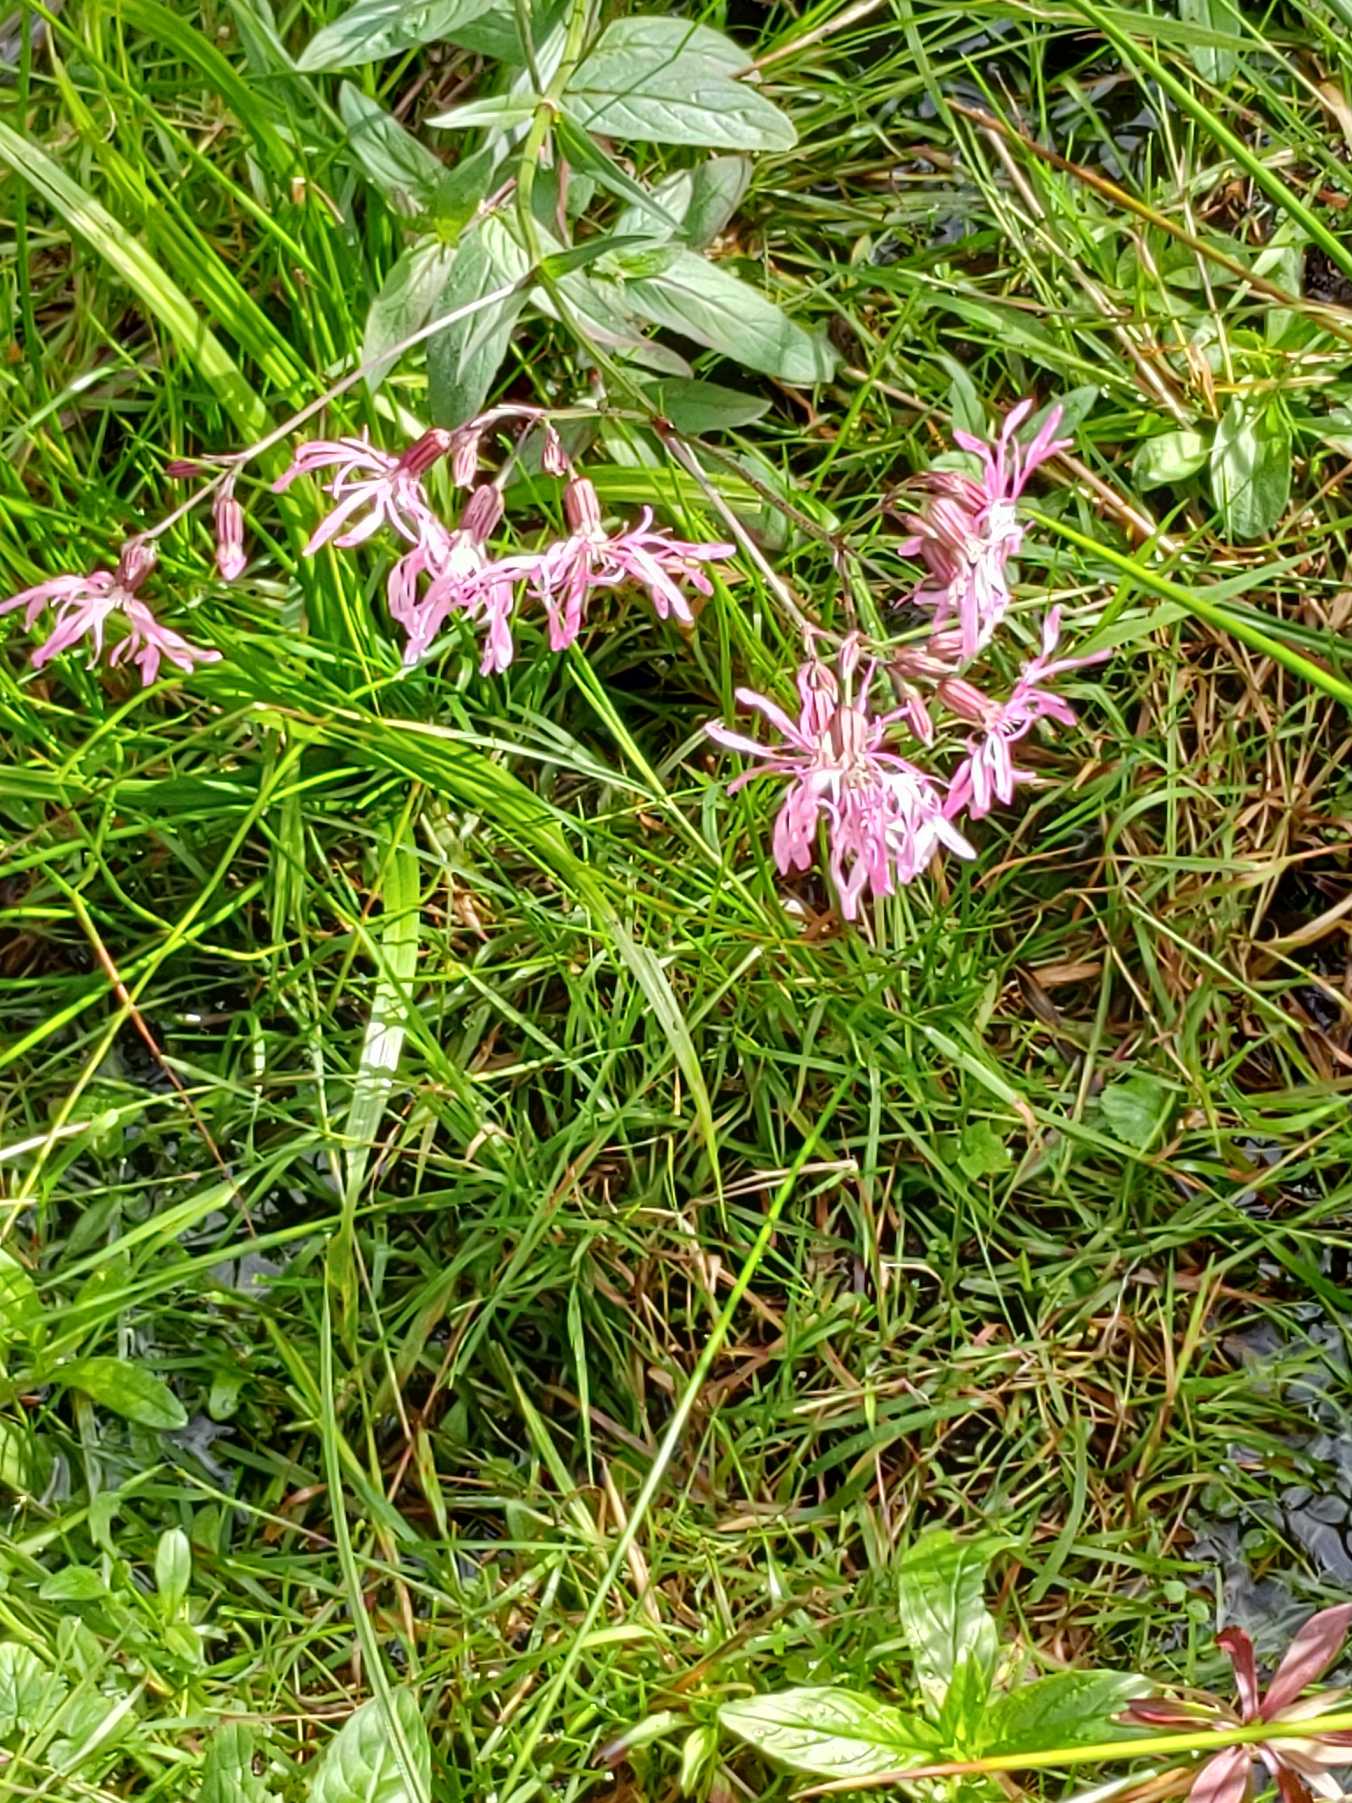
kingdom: Plantae
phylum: Tracheophyta
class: Magnoliopsida
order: Caryophyllales
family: Caryophyllaceae
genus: Silene
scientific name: Silene flos-cuculi
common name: Trævlekrone
